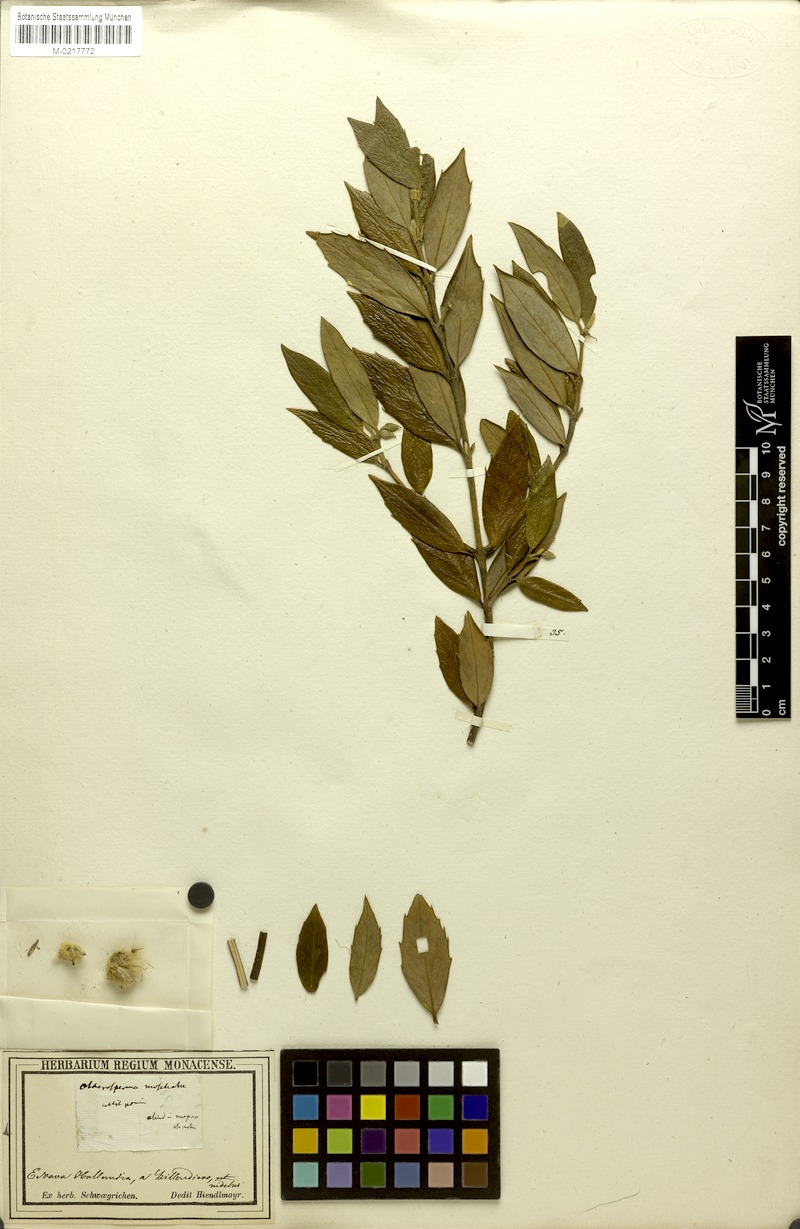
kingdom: Plantae
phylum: Tracheophyta
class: Magnoliopsida
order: Laurales
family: Atherospermataceae
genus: Atherosperma
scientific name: Atherosperma moschatum
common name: Tasmanian-sassafras
